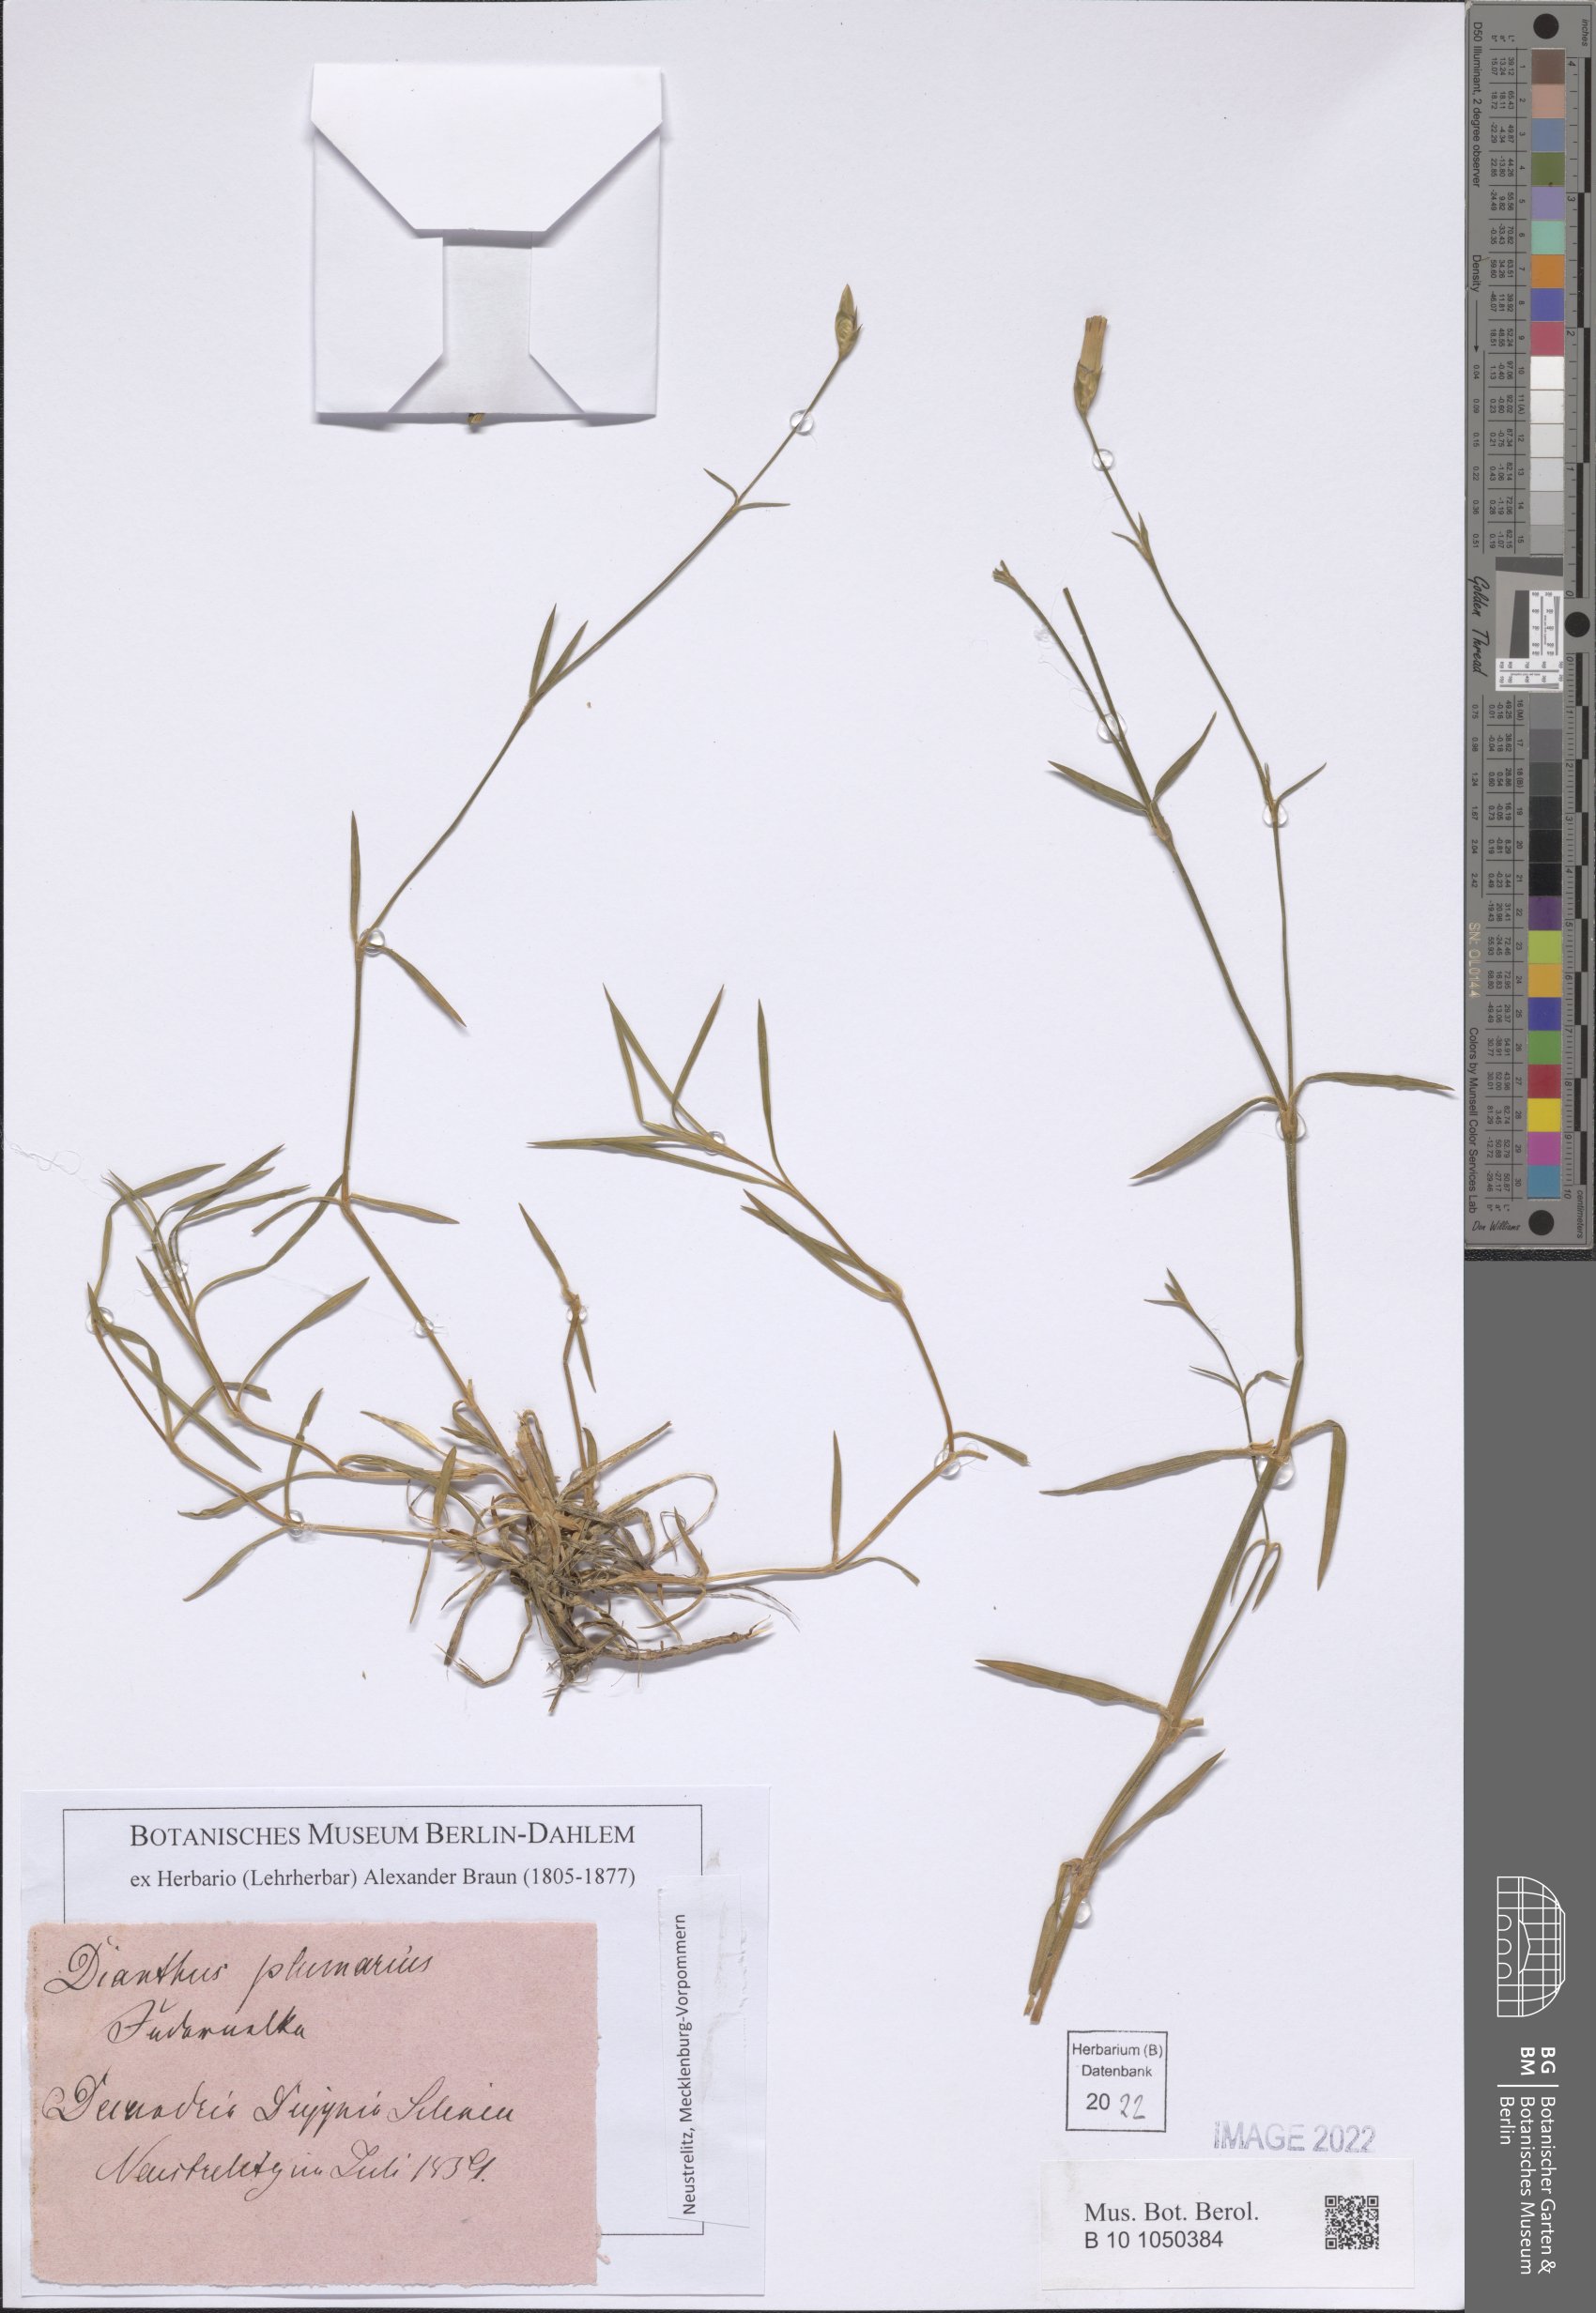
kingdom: Plantae
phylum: Tracheophyta
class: Magnoliopsida
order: Caryophyllales
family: Caryophyllaceae
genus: Dianthus
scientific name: Dianthus plumarius
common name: Pink
